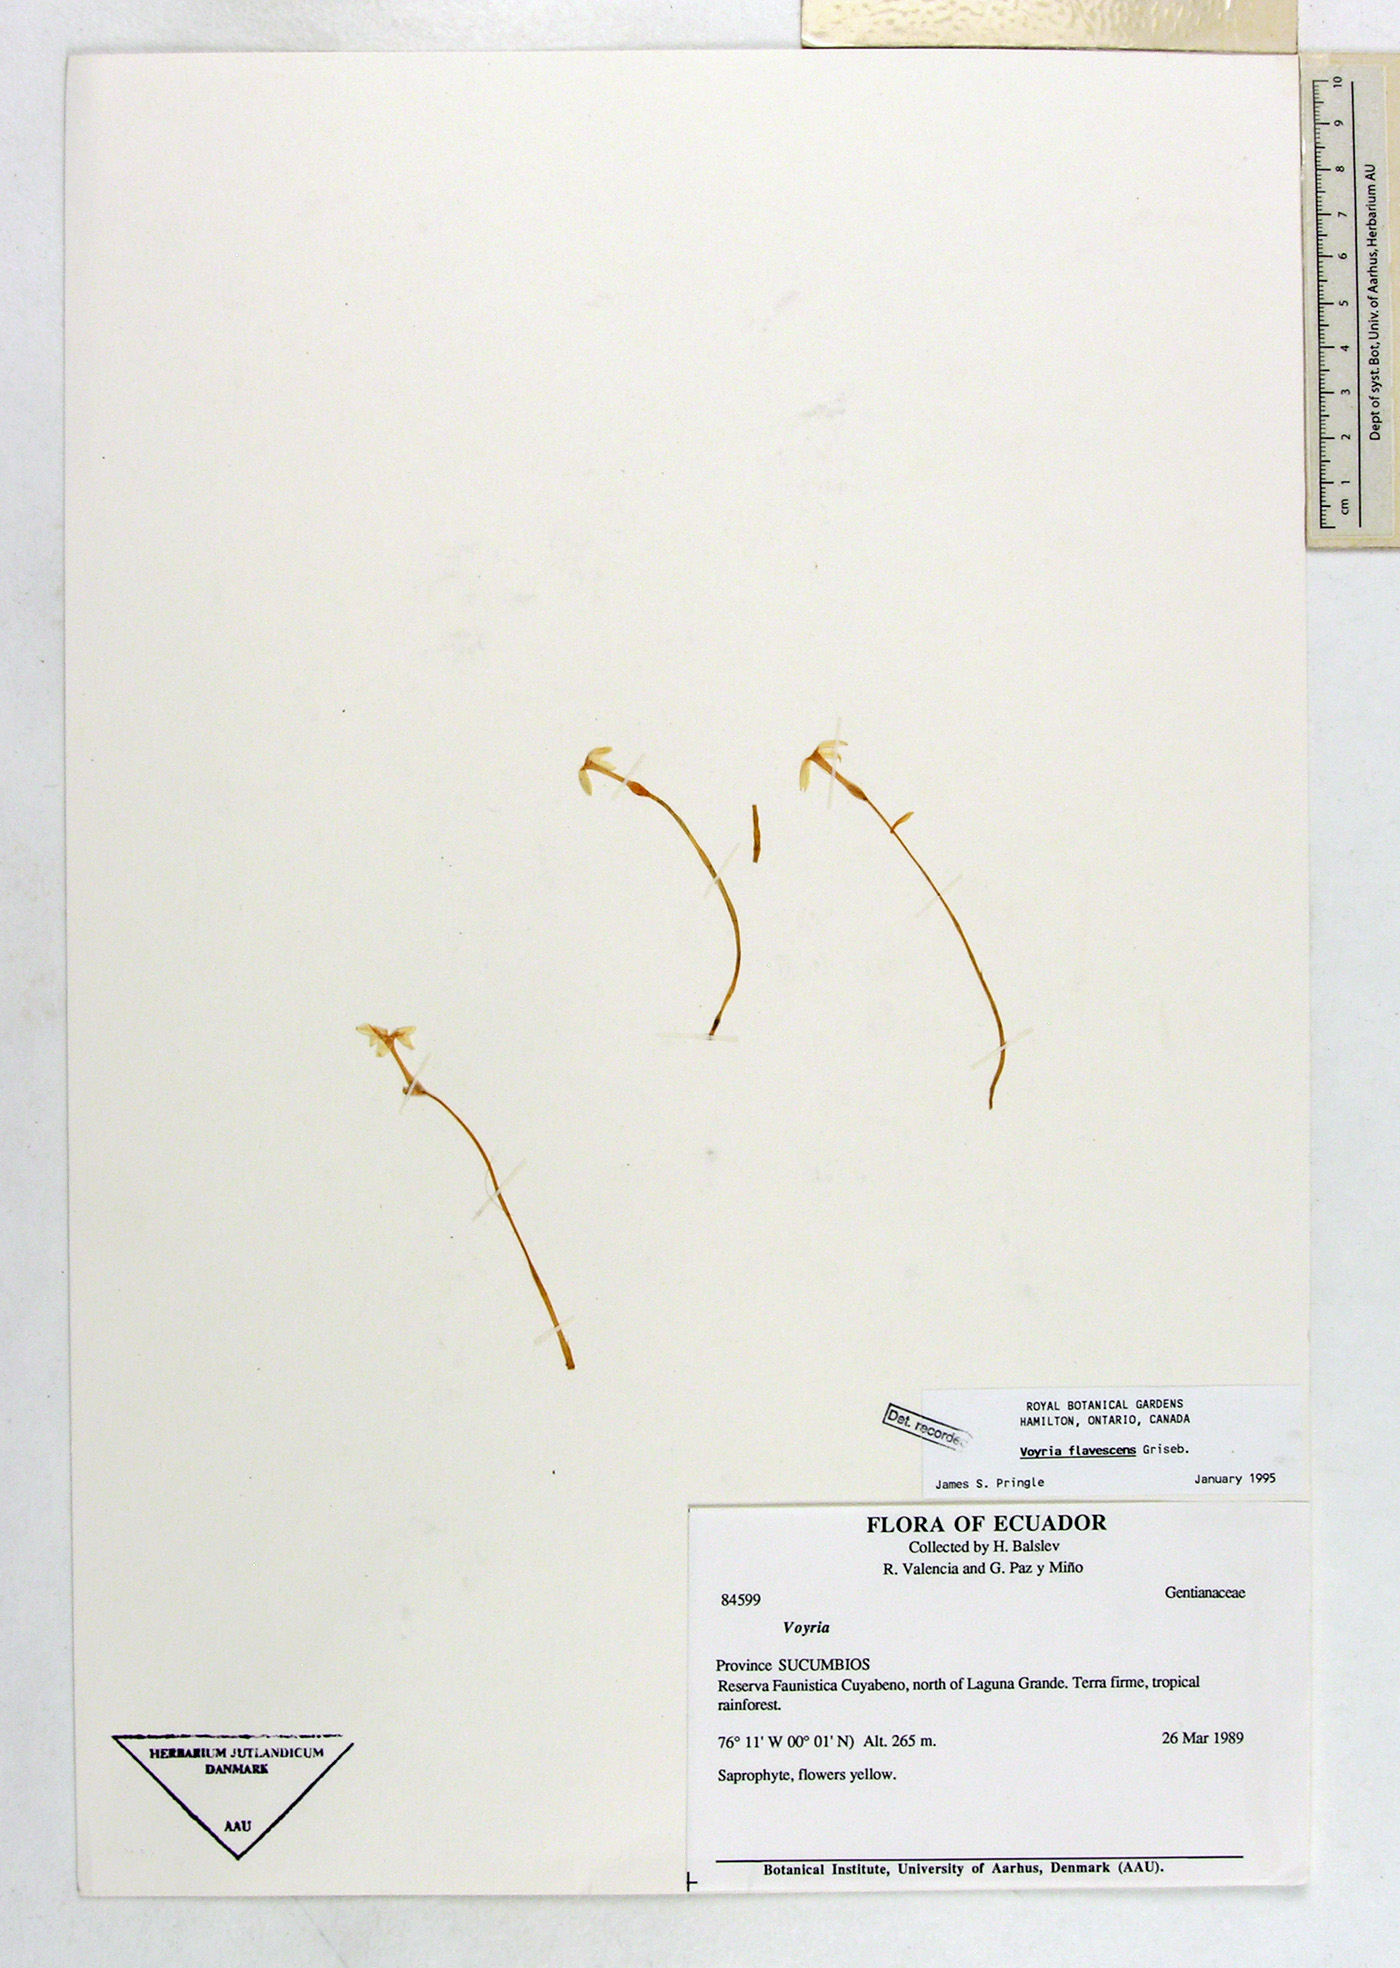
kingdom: Plantae
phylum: Tracheophyta
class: Magnoliopsida
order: Gentianales
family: Gentianaceae
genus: Voyria
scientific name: Voyria flavescens
